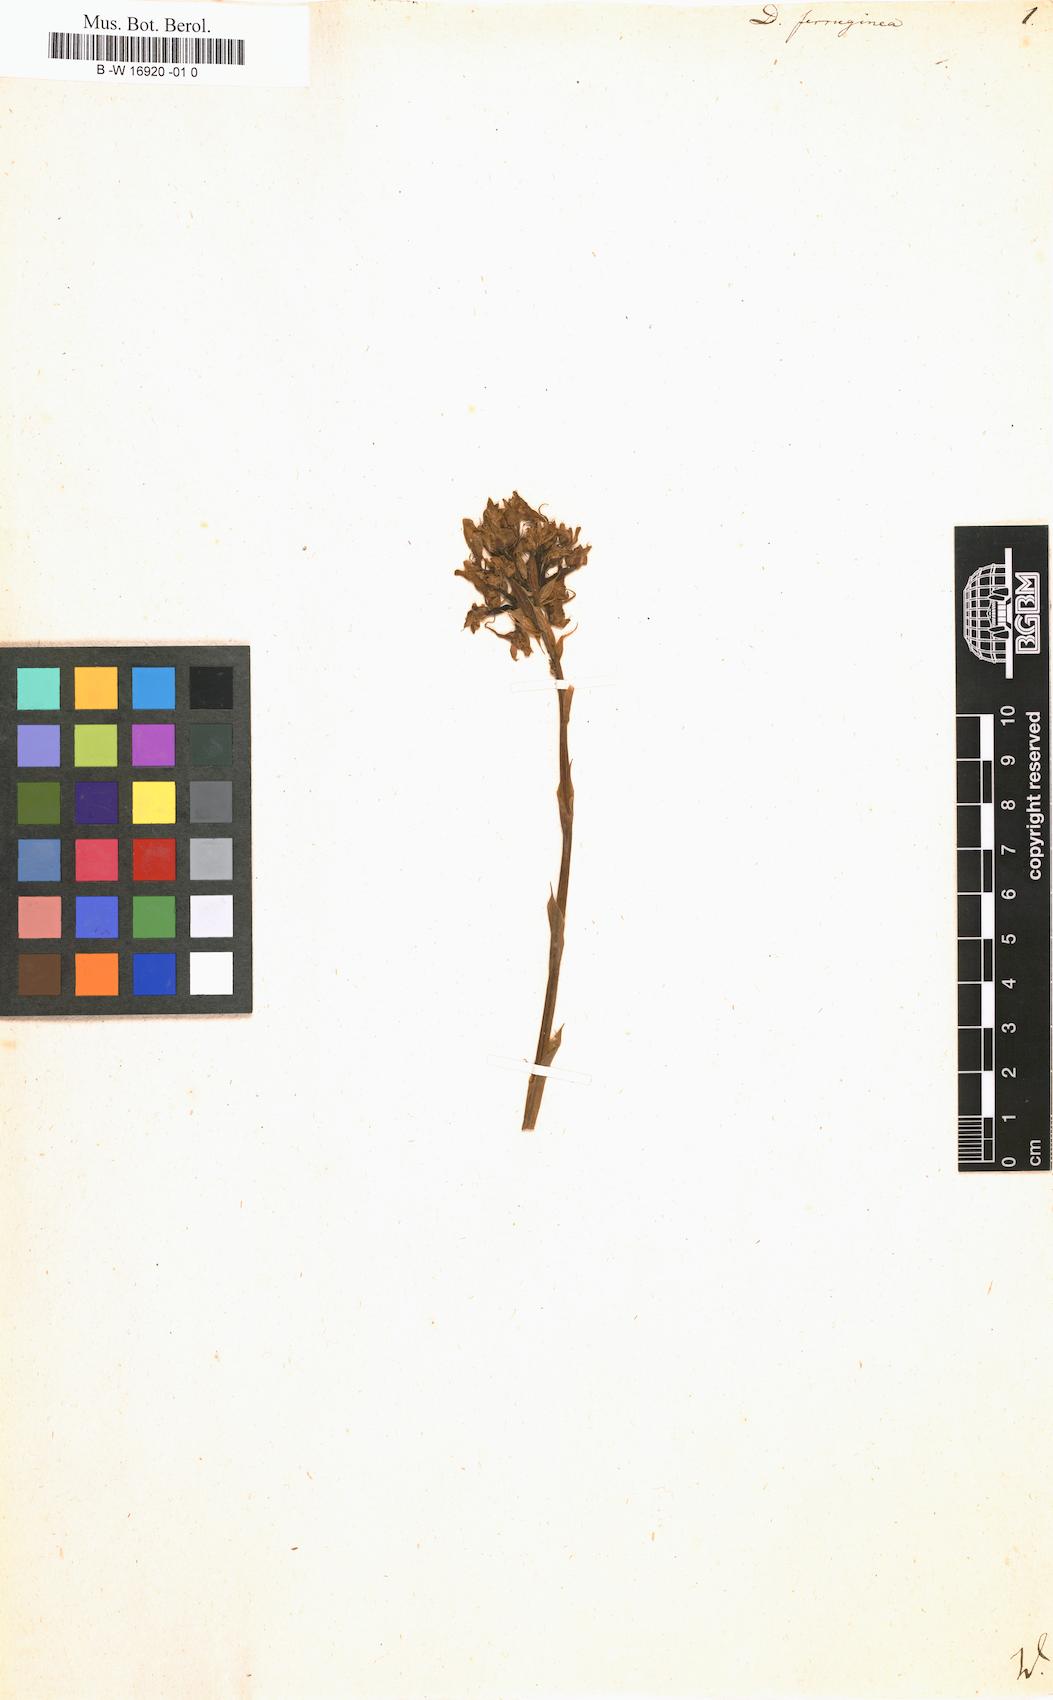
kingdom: Plantae
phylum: Tracheophyta
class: Liliopsida
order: Asparagales
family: Orchidaceae
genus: Disa
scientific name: Disa ferruginea
